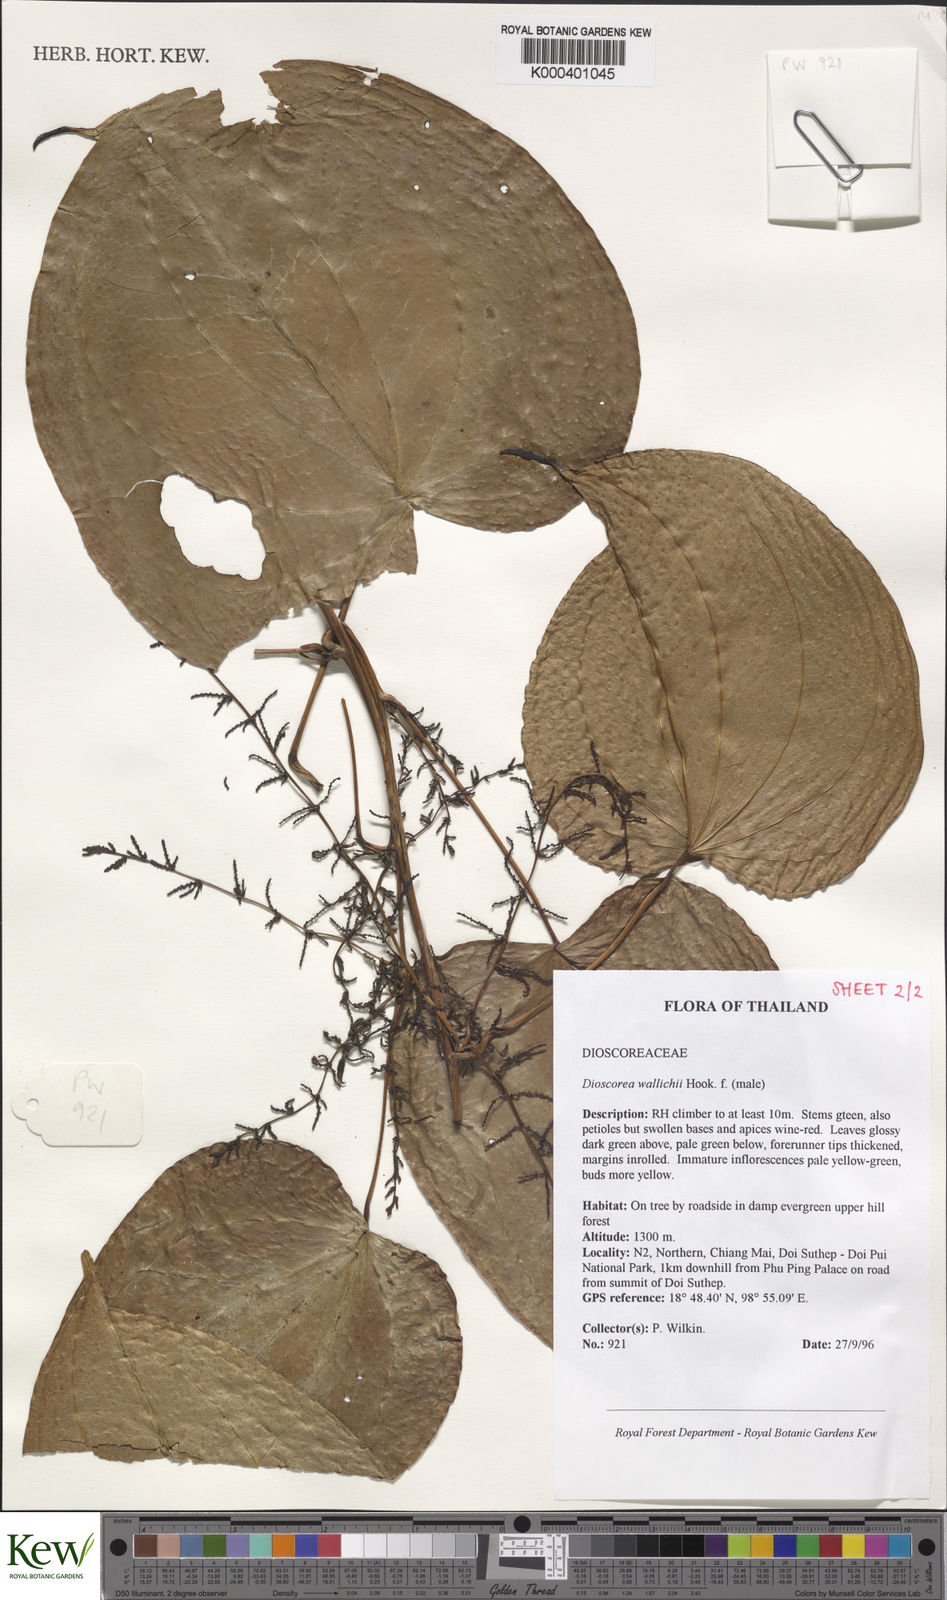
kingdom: Plantae
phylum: Tracheophyta
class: Liliopsida
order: Dioscoreales
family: Dioscoreaceae
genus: Dioscorea
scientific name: Dioscorea wallichii
